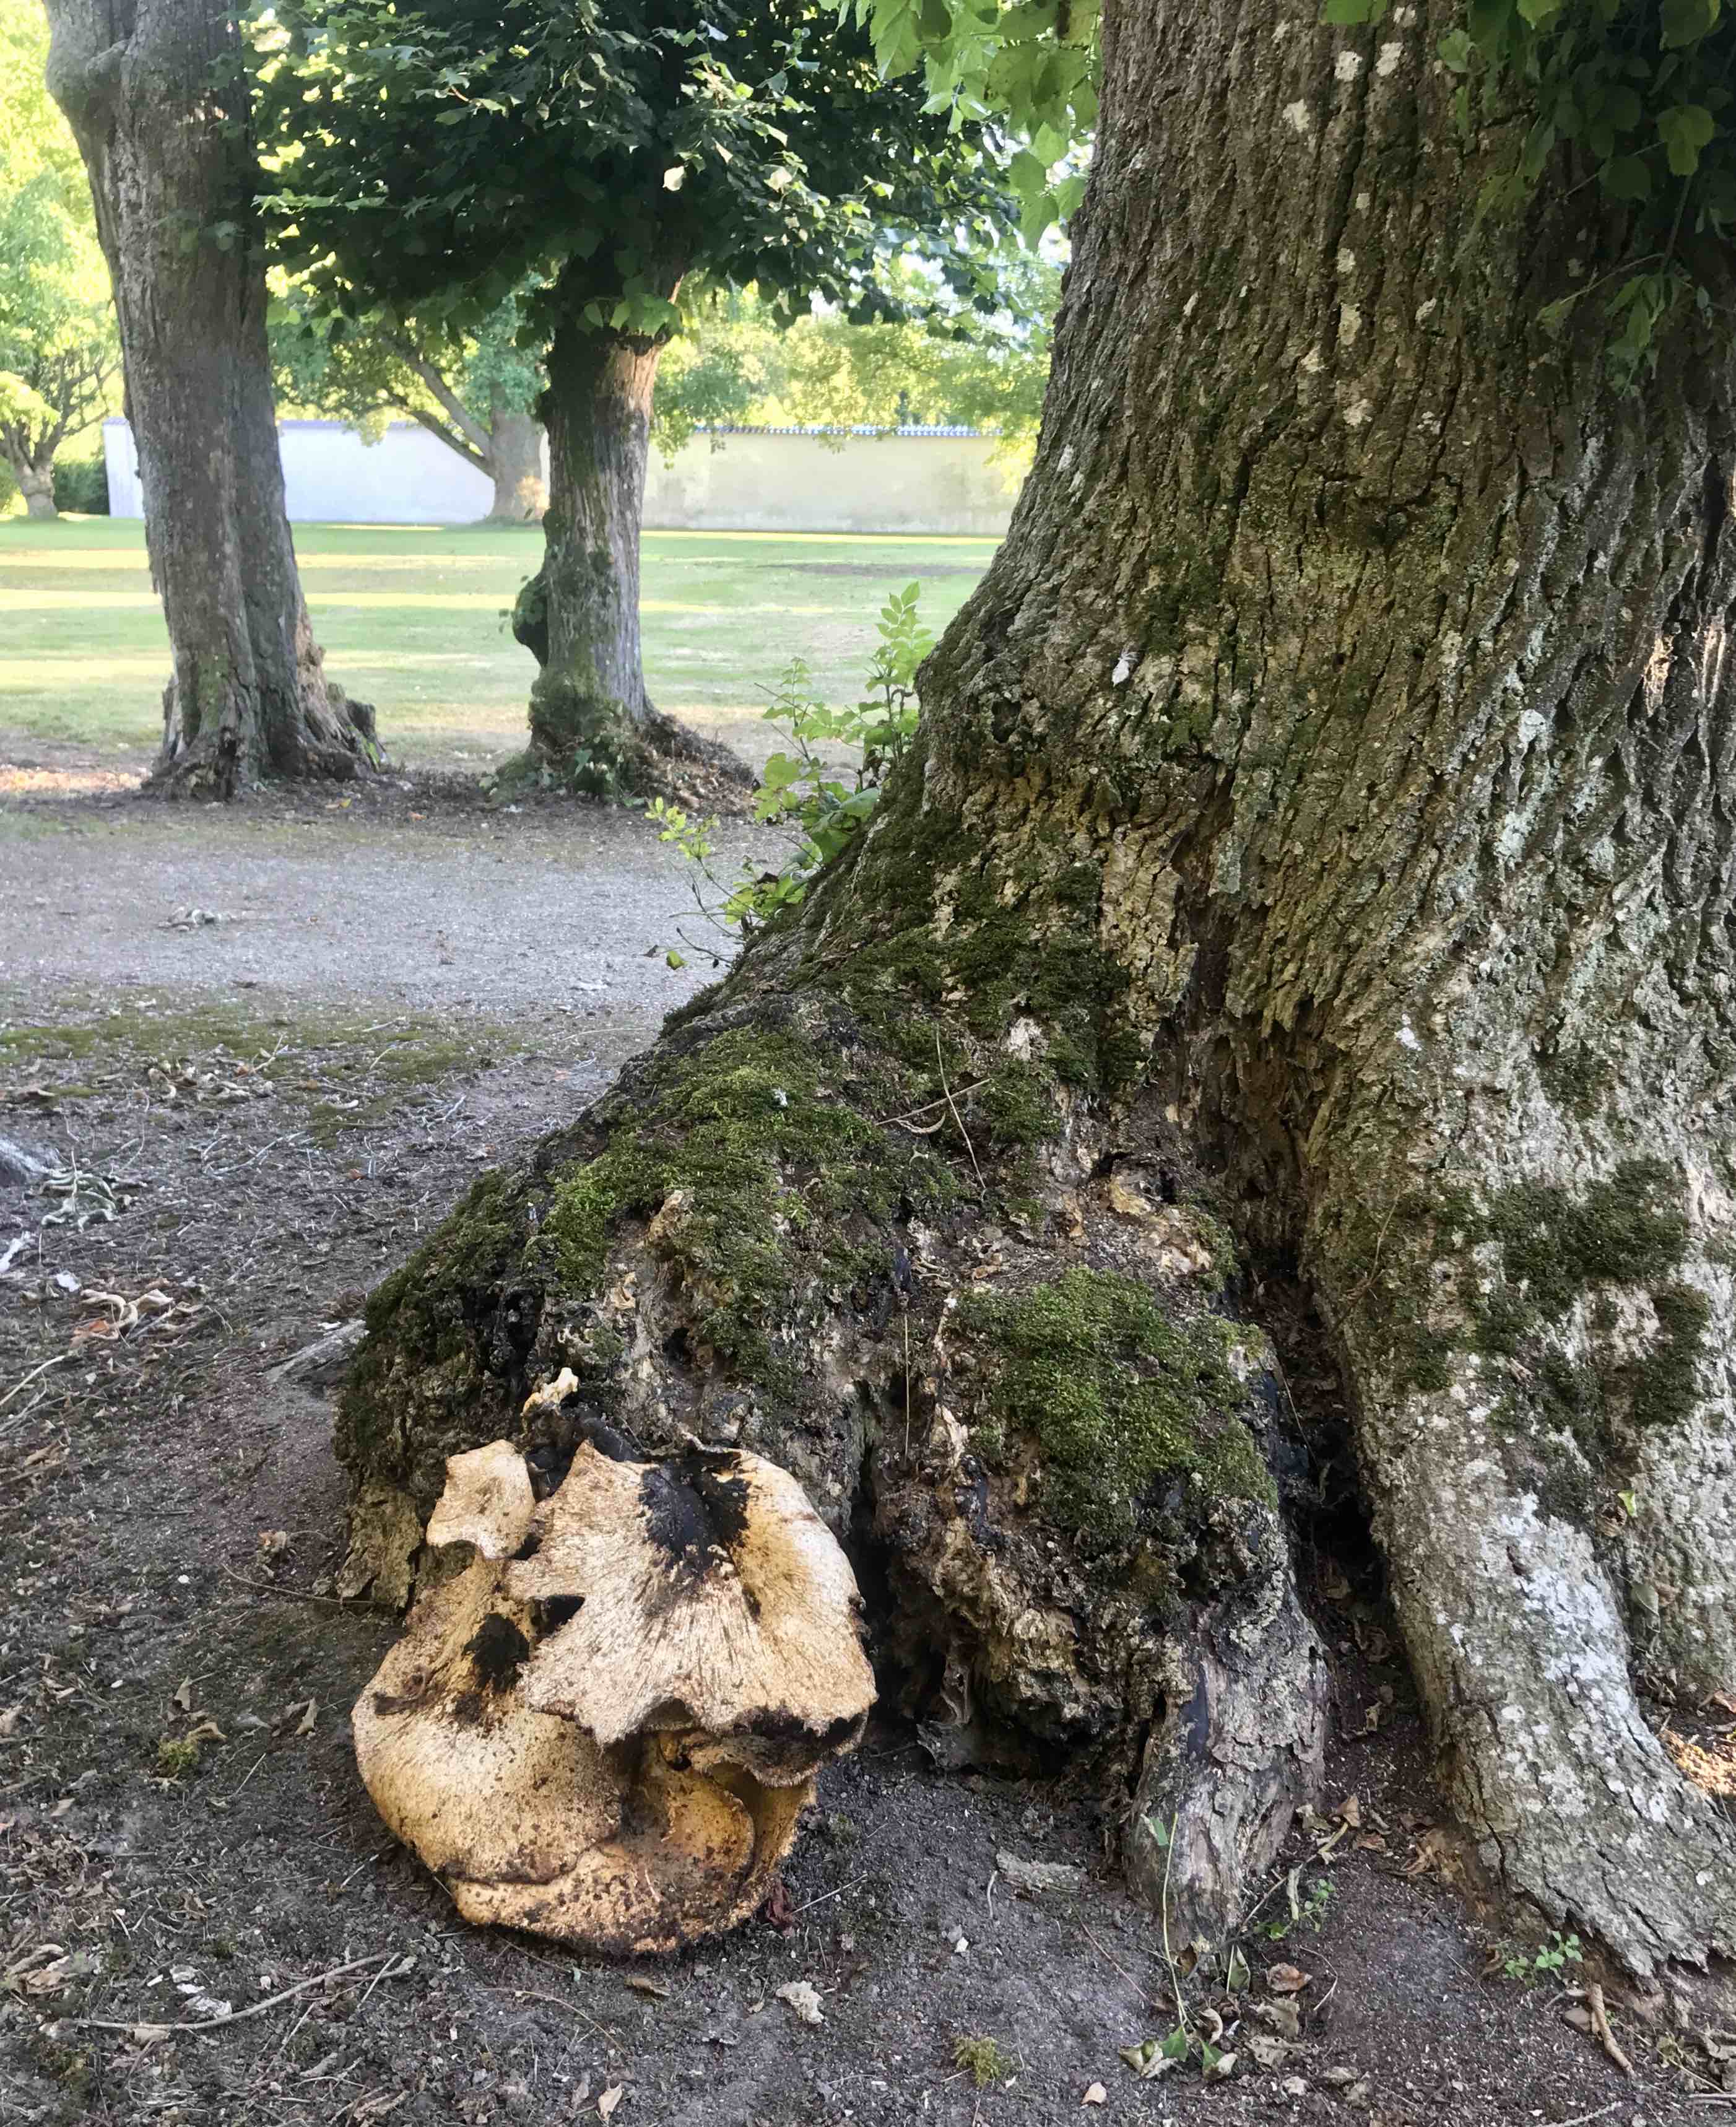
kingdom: Fungi
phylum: Basidiomycota
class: Agaricomycetes
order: Polyporales
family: Polyporaceae
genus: Cerioporus
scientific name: Cerioporus squamosus
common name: skællet stilkporesvamp
